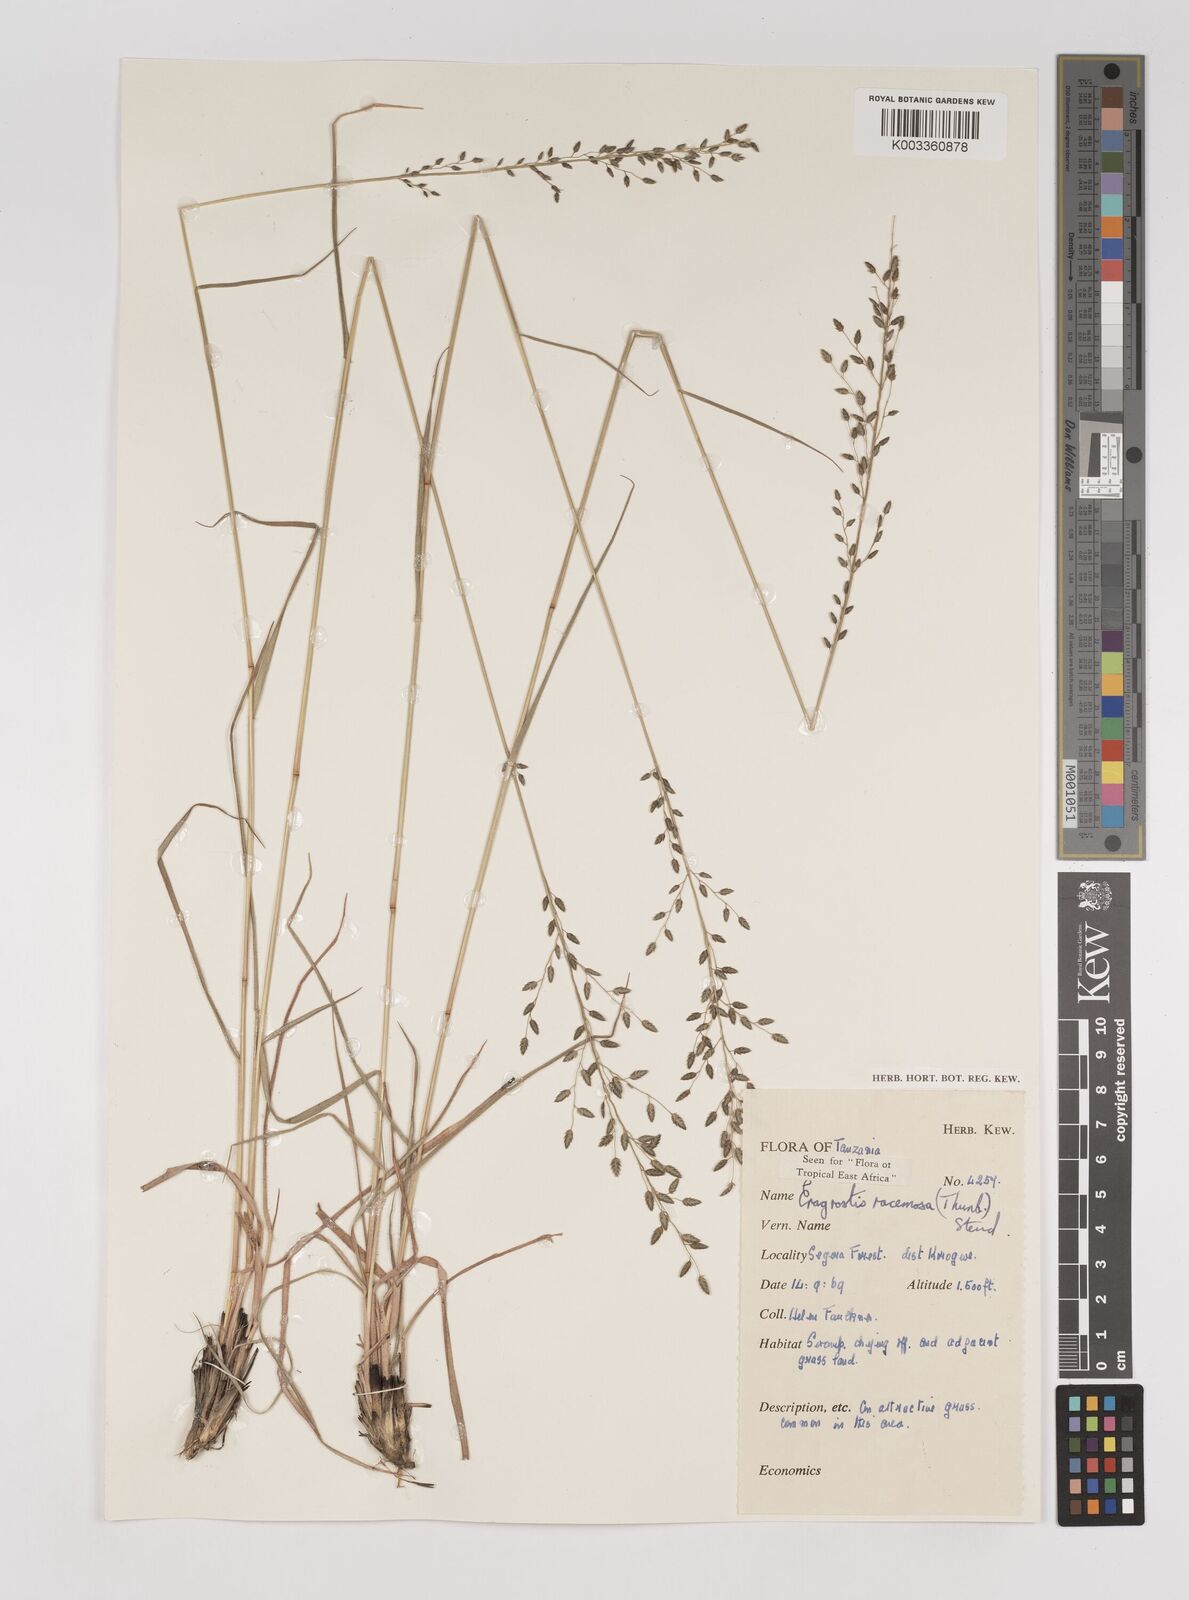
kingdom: Plantae
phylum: Tracheophyta
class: Liliopsida
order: Poales
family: Poaceae
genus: Eragrostis
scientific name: Eragrostis racemosa
